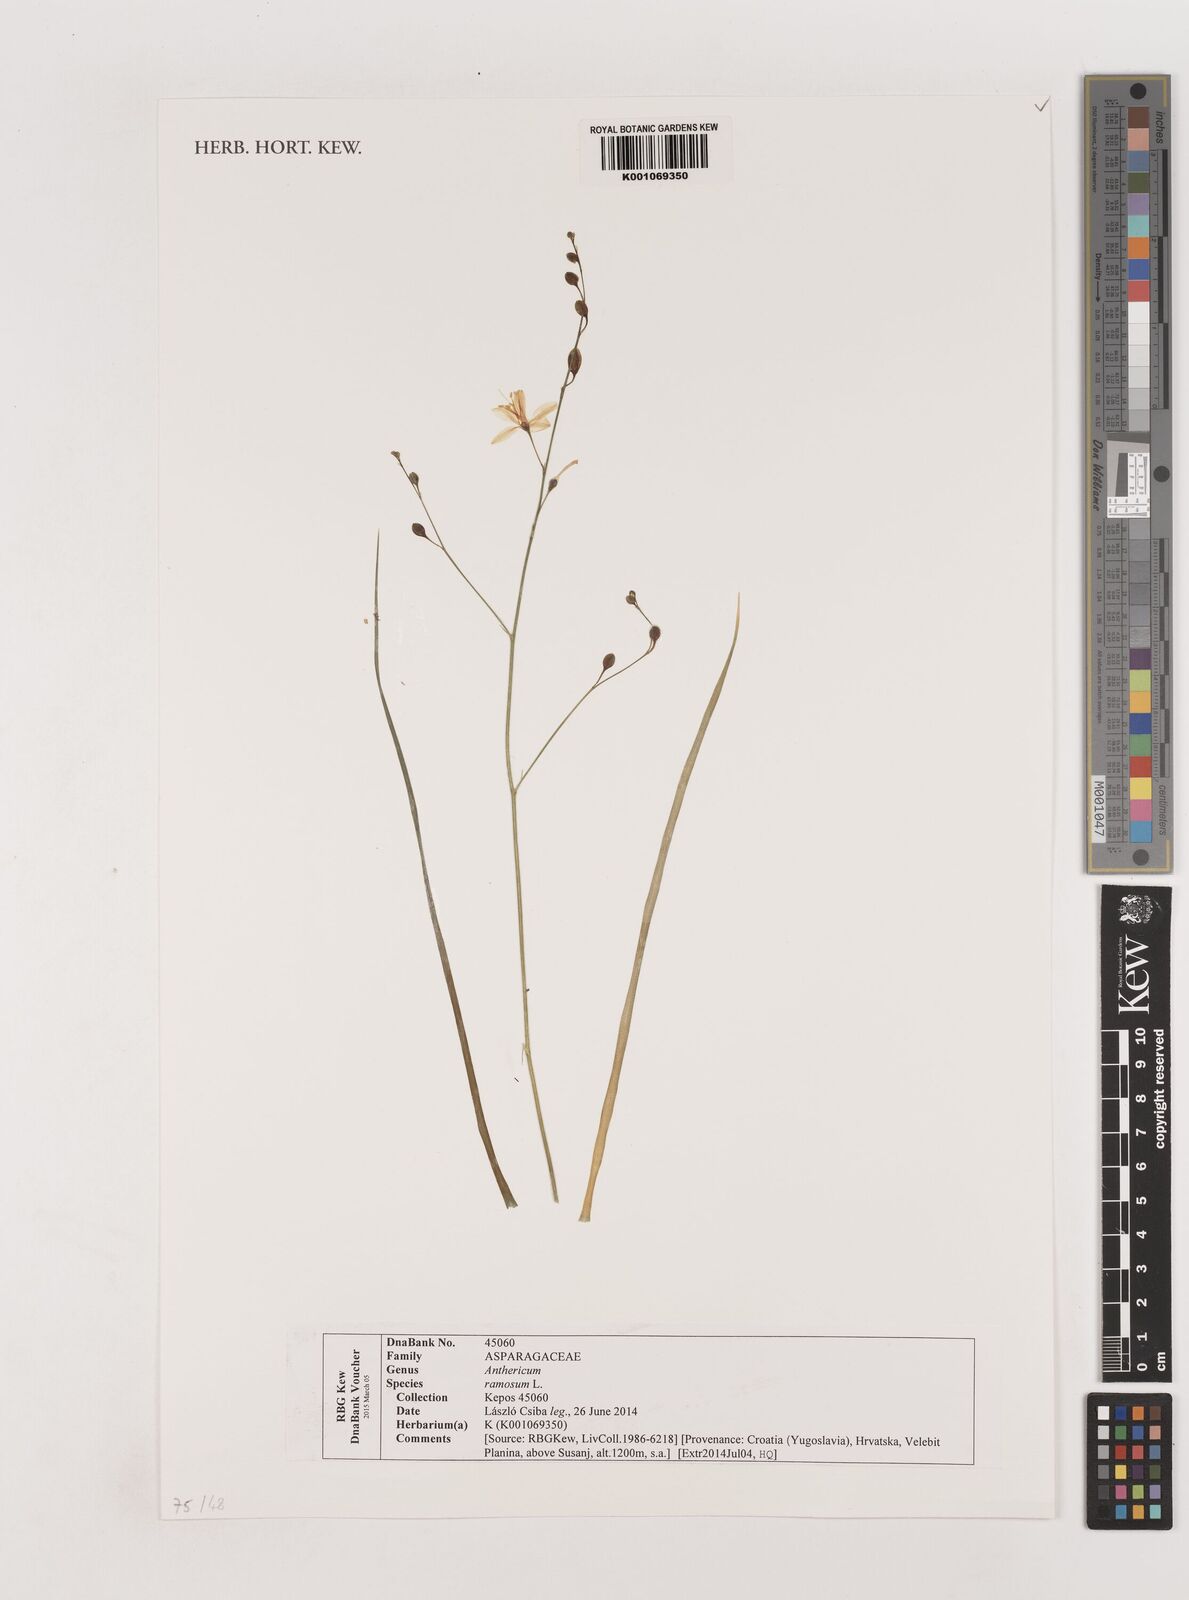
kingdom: Plantae
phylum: Tracheophyta
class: Liliopsida
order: Asparagales
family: Asparagaceae
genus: Anthericum
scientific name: Anthericum ramosum
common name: Branched st. bernard's-lily
